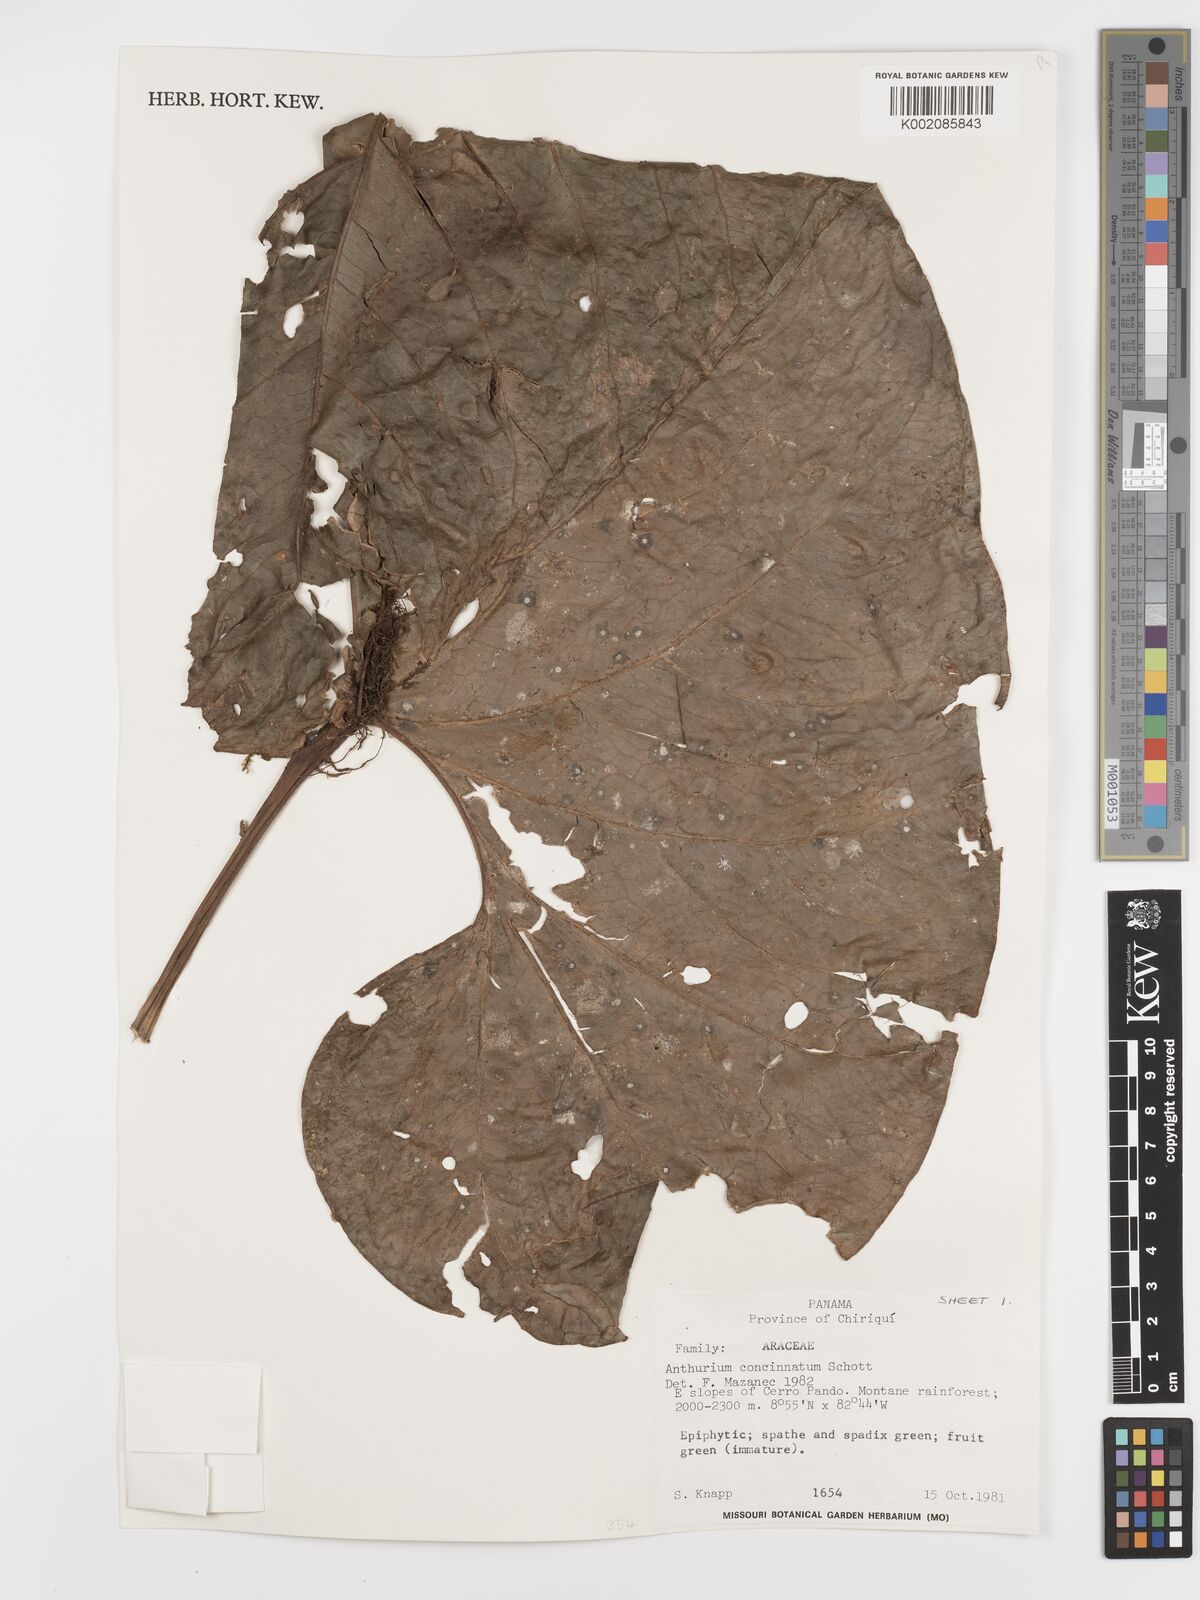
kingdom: Plantae
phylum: Tracheophyta
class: Liliopsida
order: Alismatales
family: Araceae
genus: Anthurium
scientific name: Anthurium concinnatum
